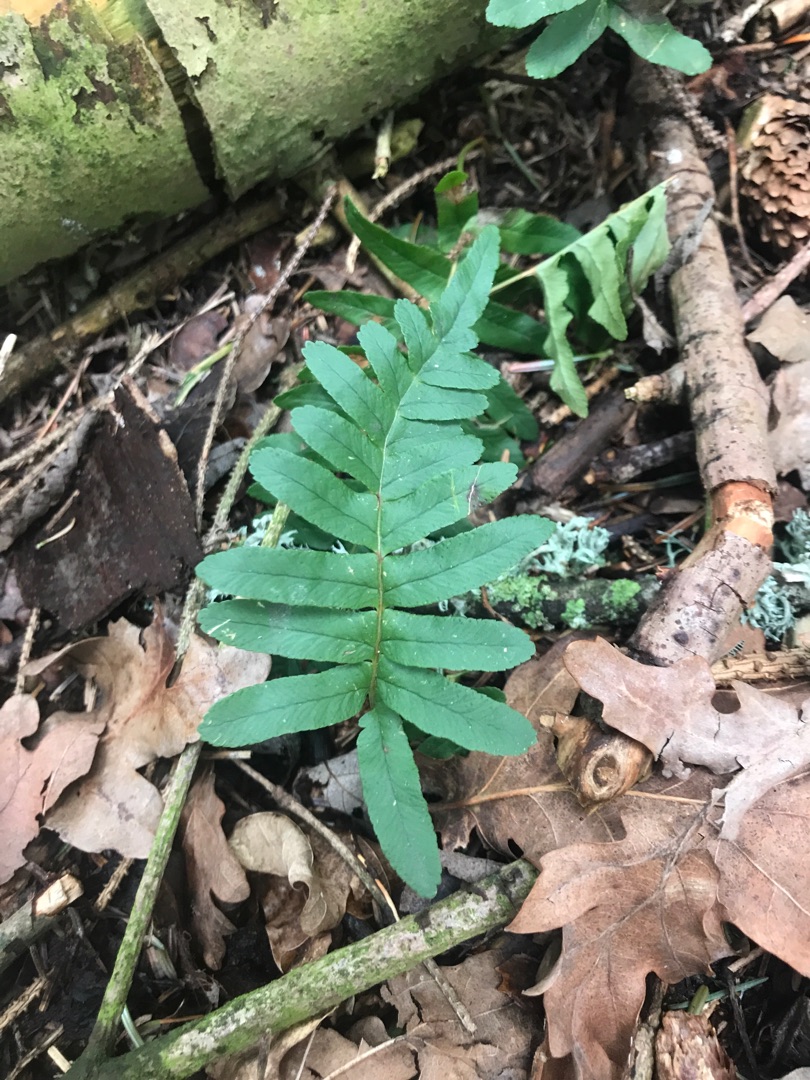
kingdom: Plantae
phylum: Tracheophyta
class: Polypodiopsida
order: Polypodiales
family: Polypodiaceae
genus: Polypodium
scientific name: Polypodium vulgare
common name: Almindelig engelsød
